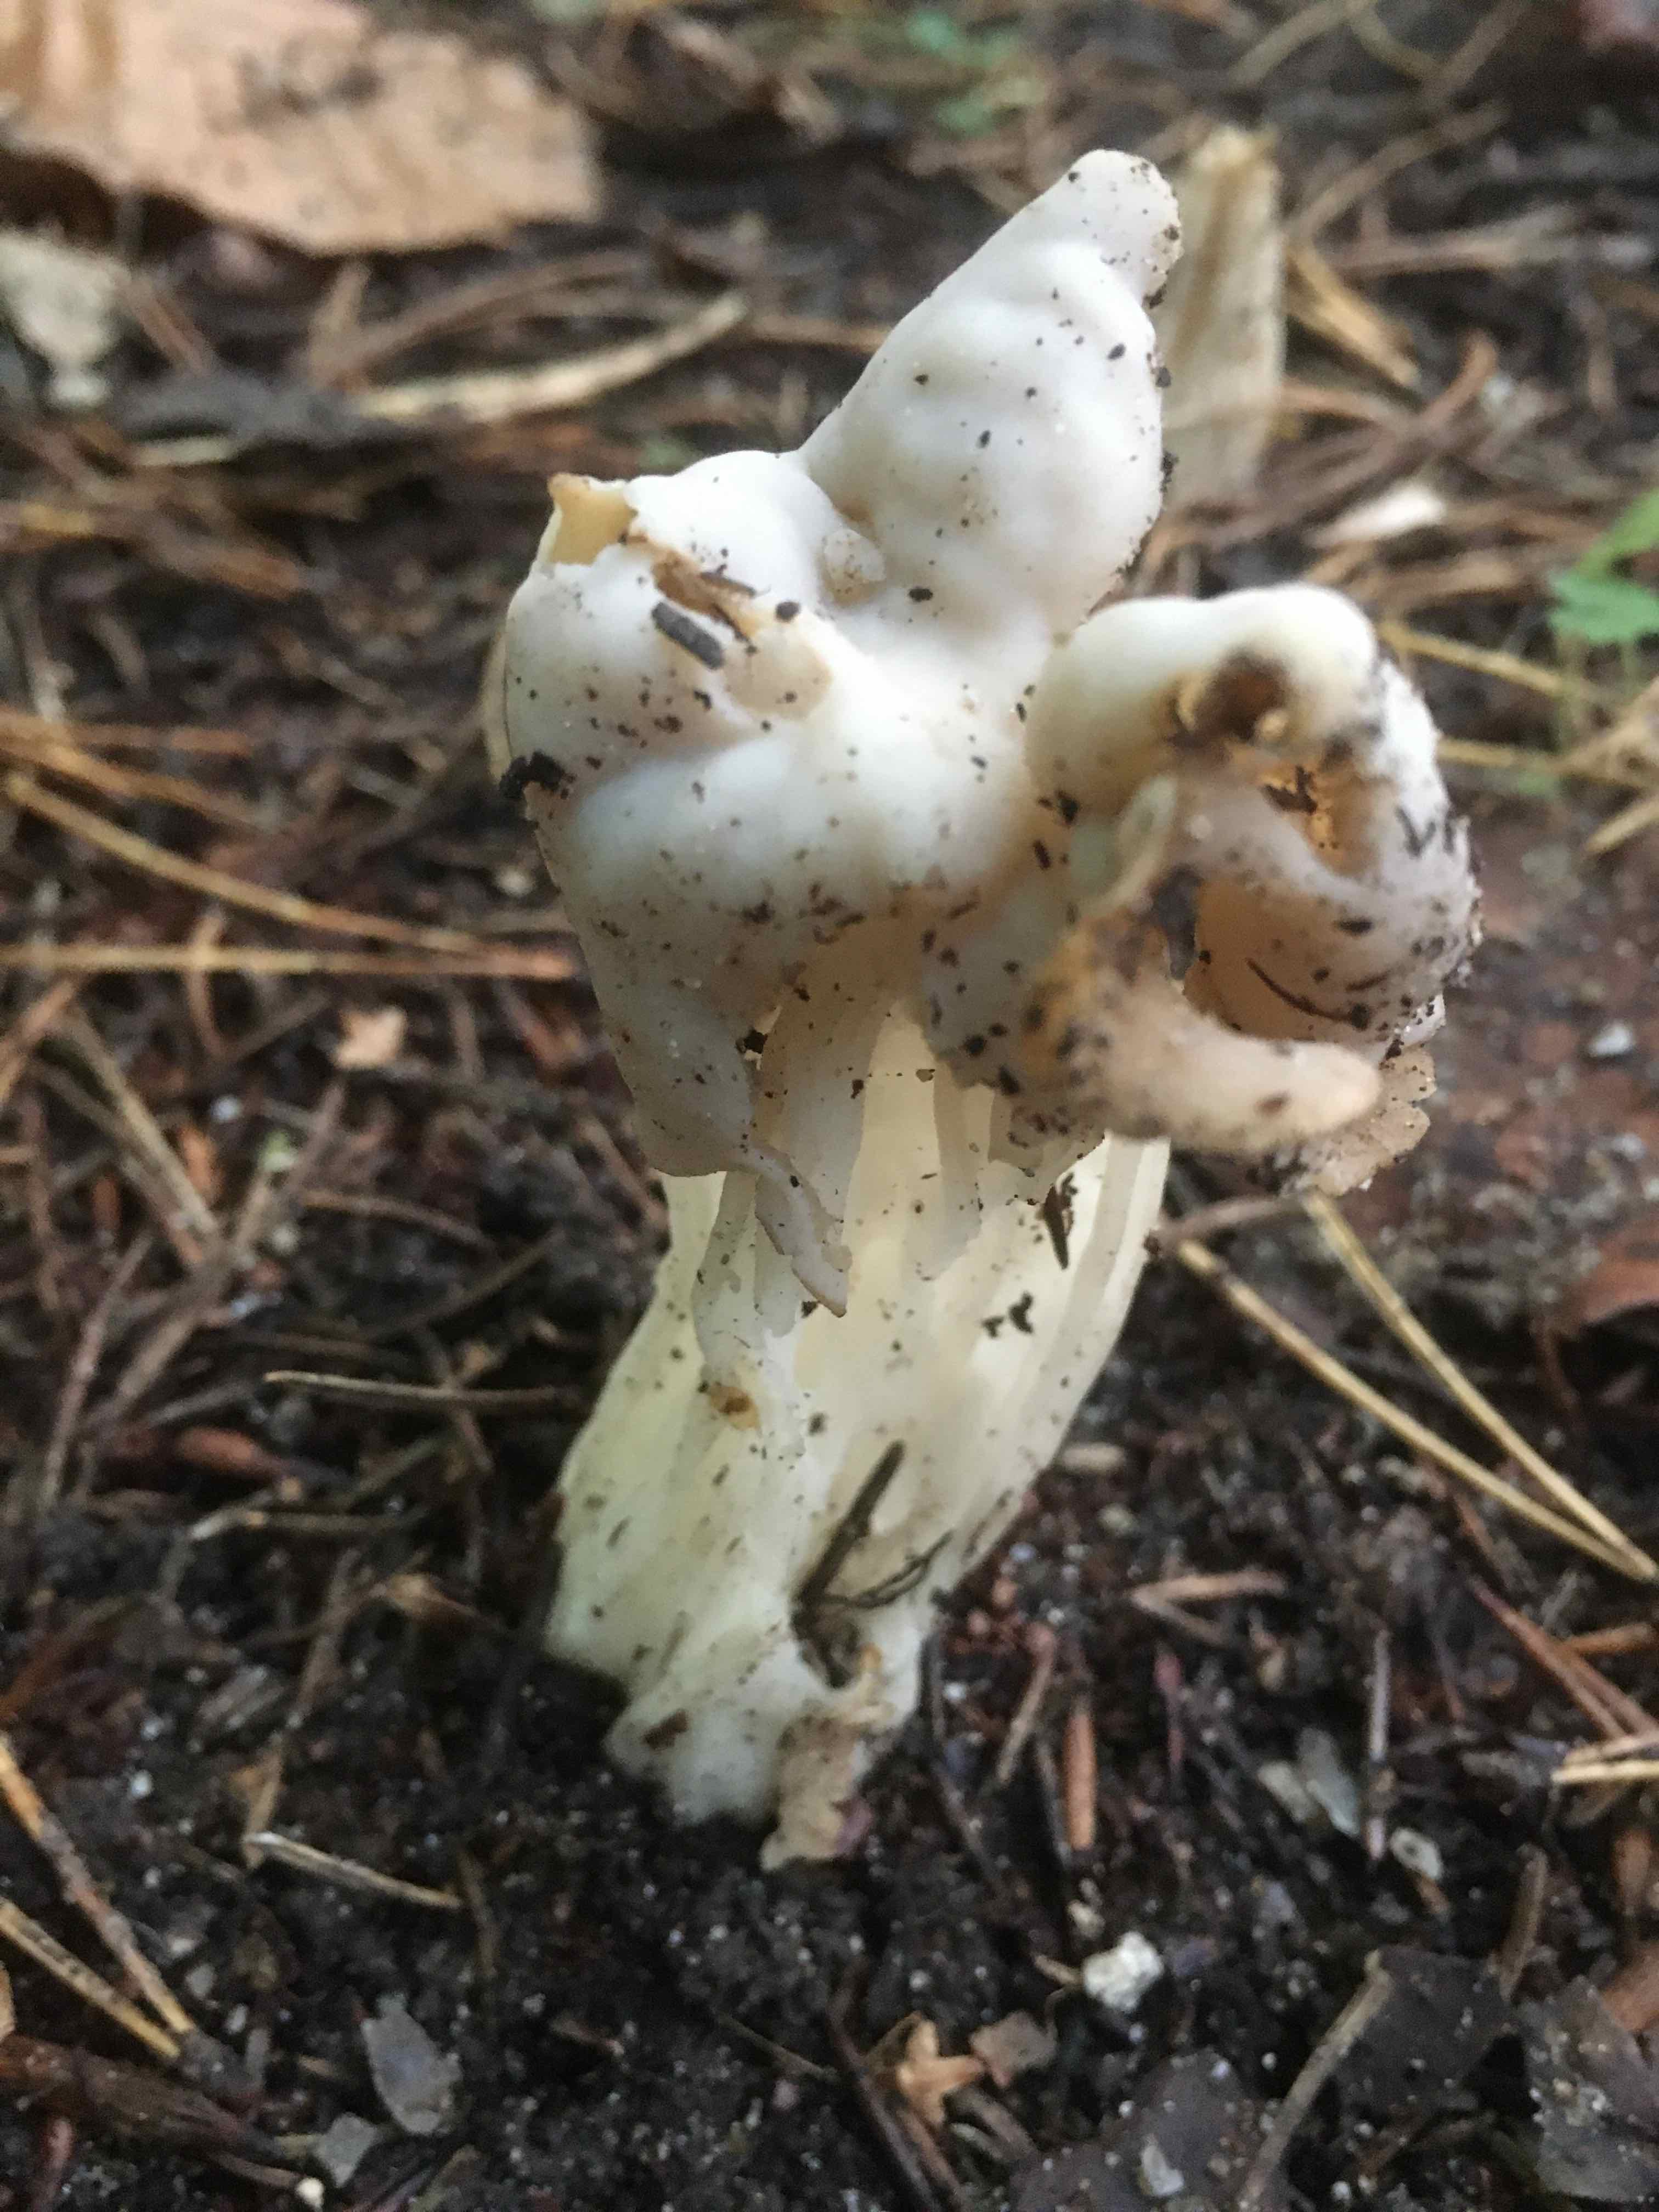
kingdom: Fungi
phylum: Ascomycota
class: Pezizomycetes
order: Pezizales
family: Helvellaceae
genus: Helvella
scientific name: Helvella crispa
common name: kruset foldhat
